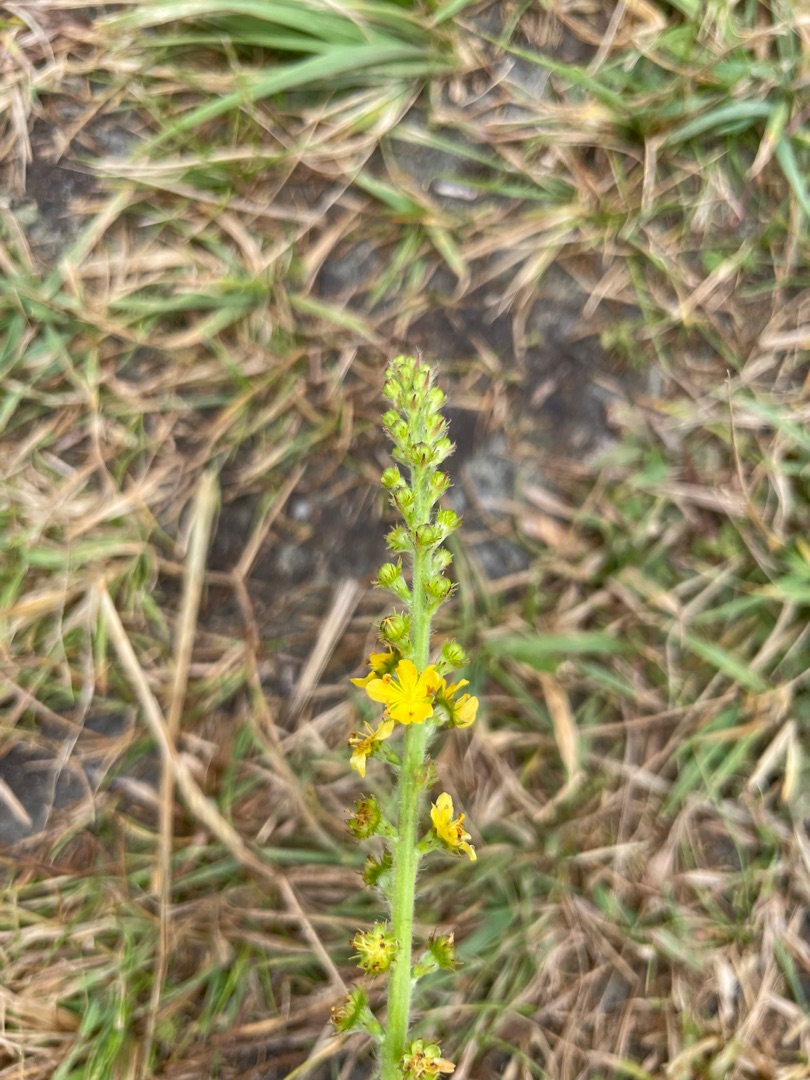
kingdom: Plantae
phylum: Tracheophyta
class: Magnoliopsida
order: Rosales
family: Rosaceae
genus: Agrimonia
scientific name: Agrimonia eupatoria
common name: Almindelig agermåne
